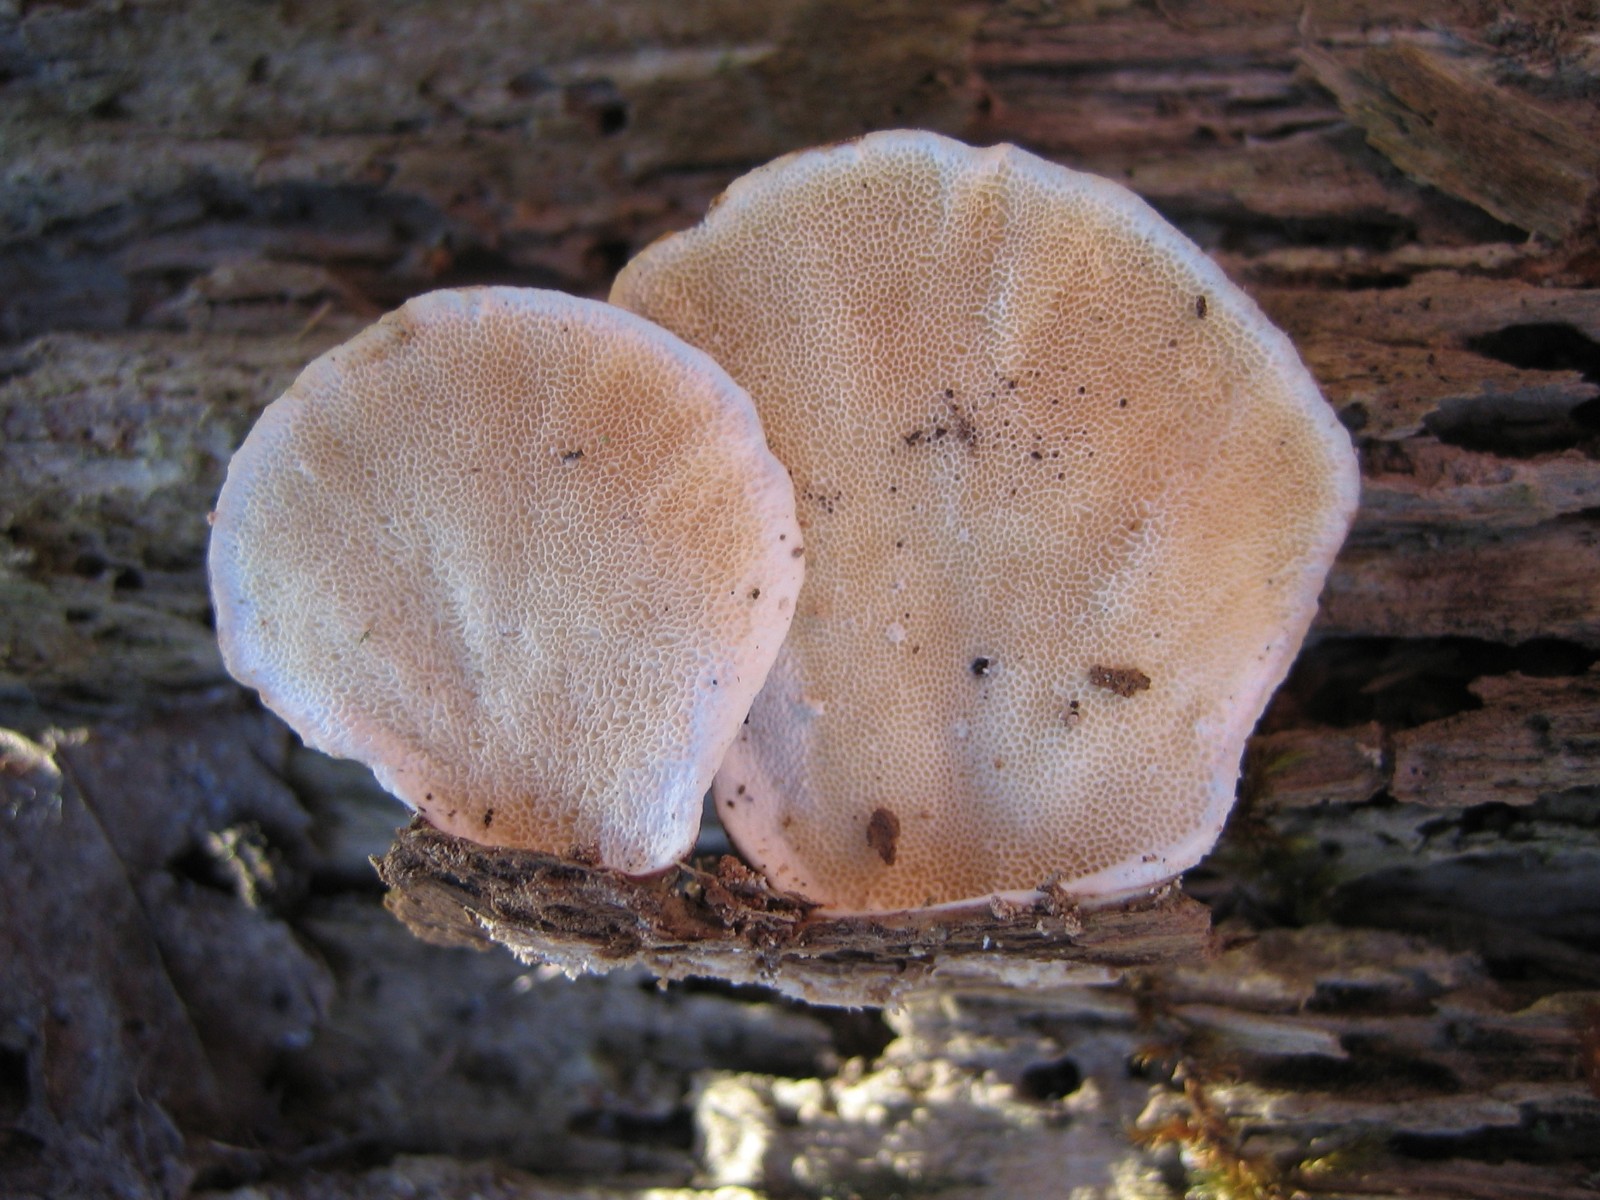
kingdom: Fungi
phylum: Basidiomycota
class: Agaricomycetes
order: Polyporales
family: Polyporaceae
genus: Trametes
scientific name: Trametes versicolor
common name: broget læderporesvamp
